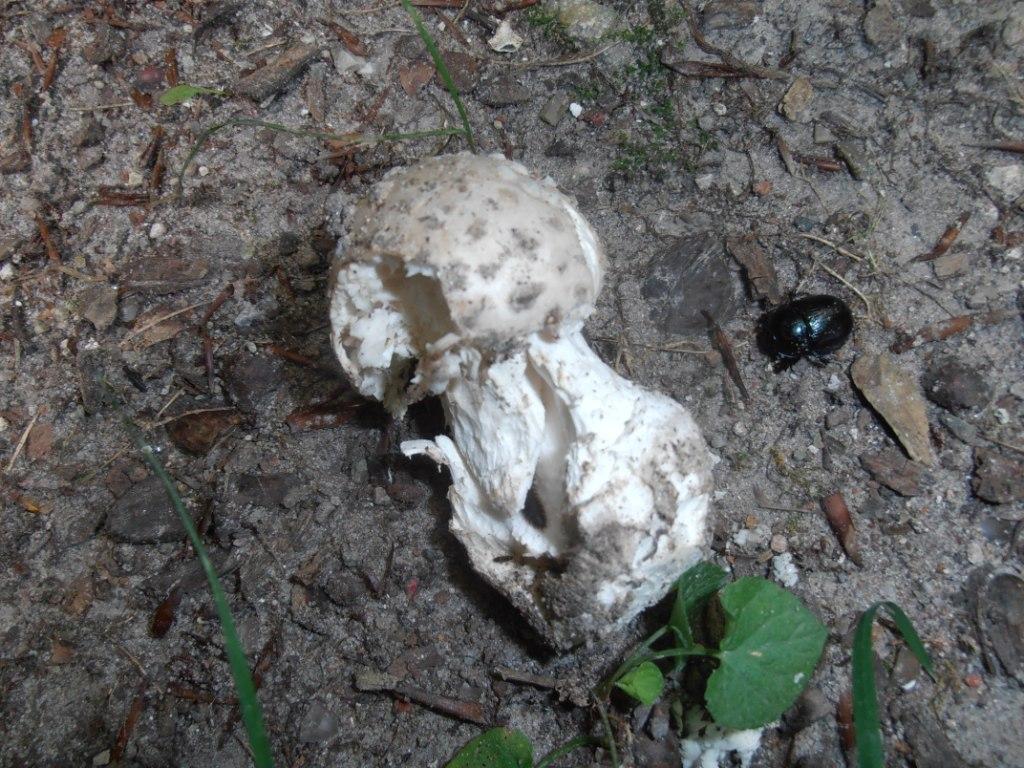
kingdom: Fungi
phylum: Basidiomycota
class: Agaricomycetes
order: Agaricales
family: Amanitaceae
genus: Amanita
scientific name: Amanita
